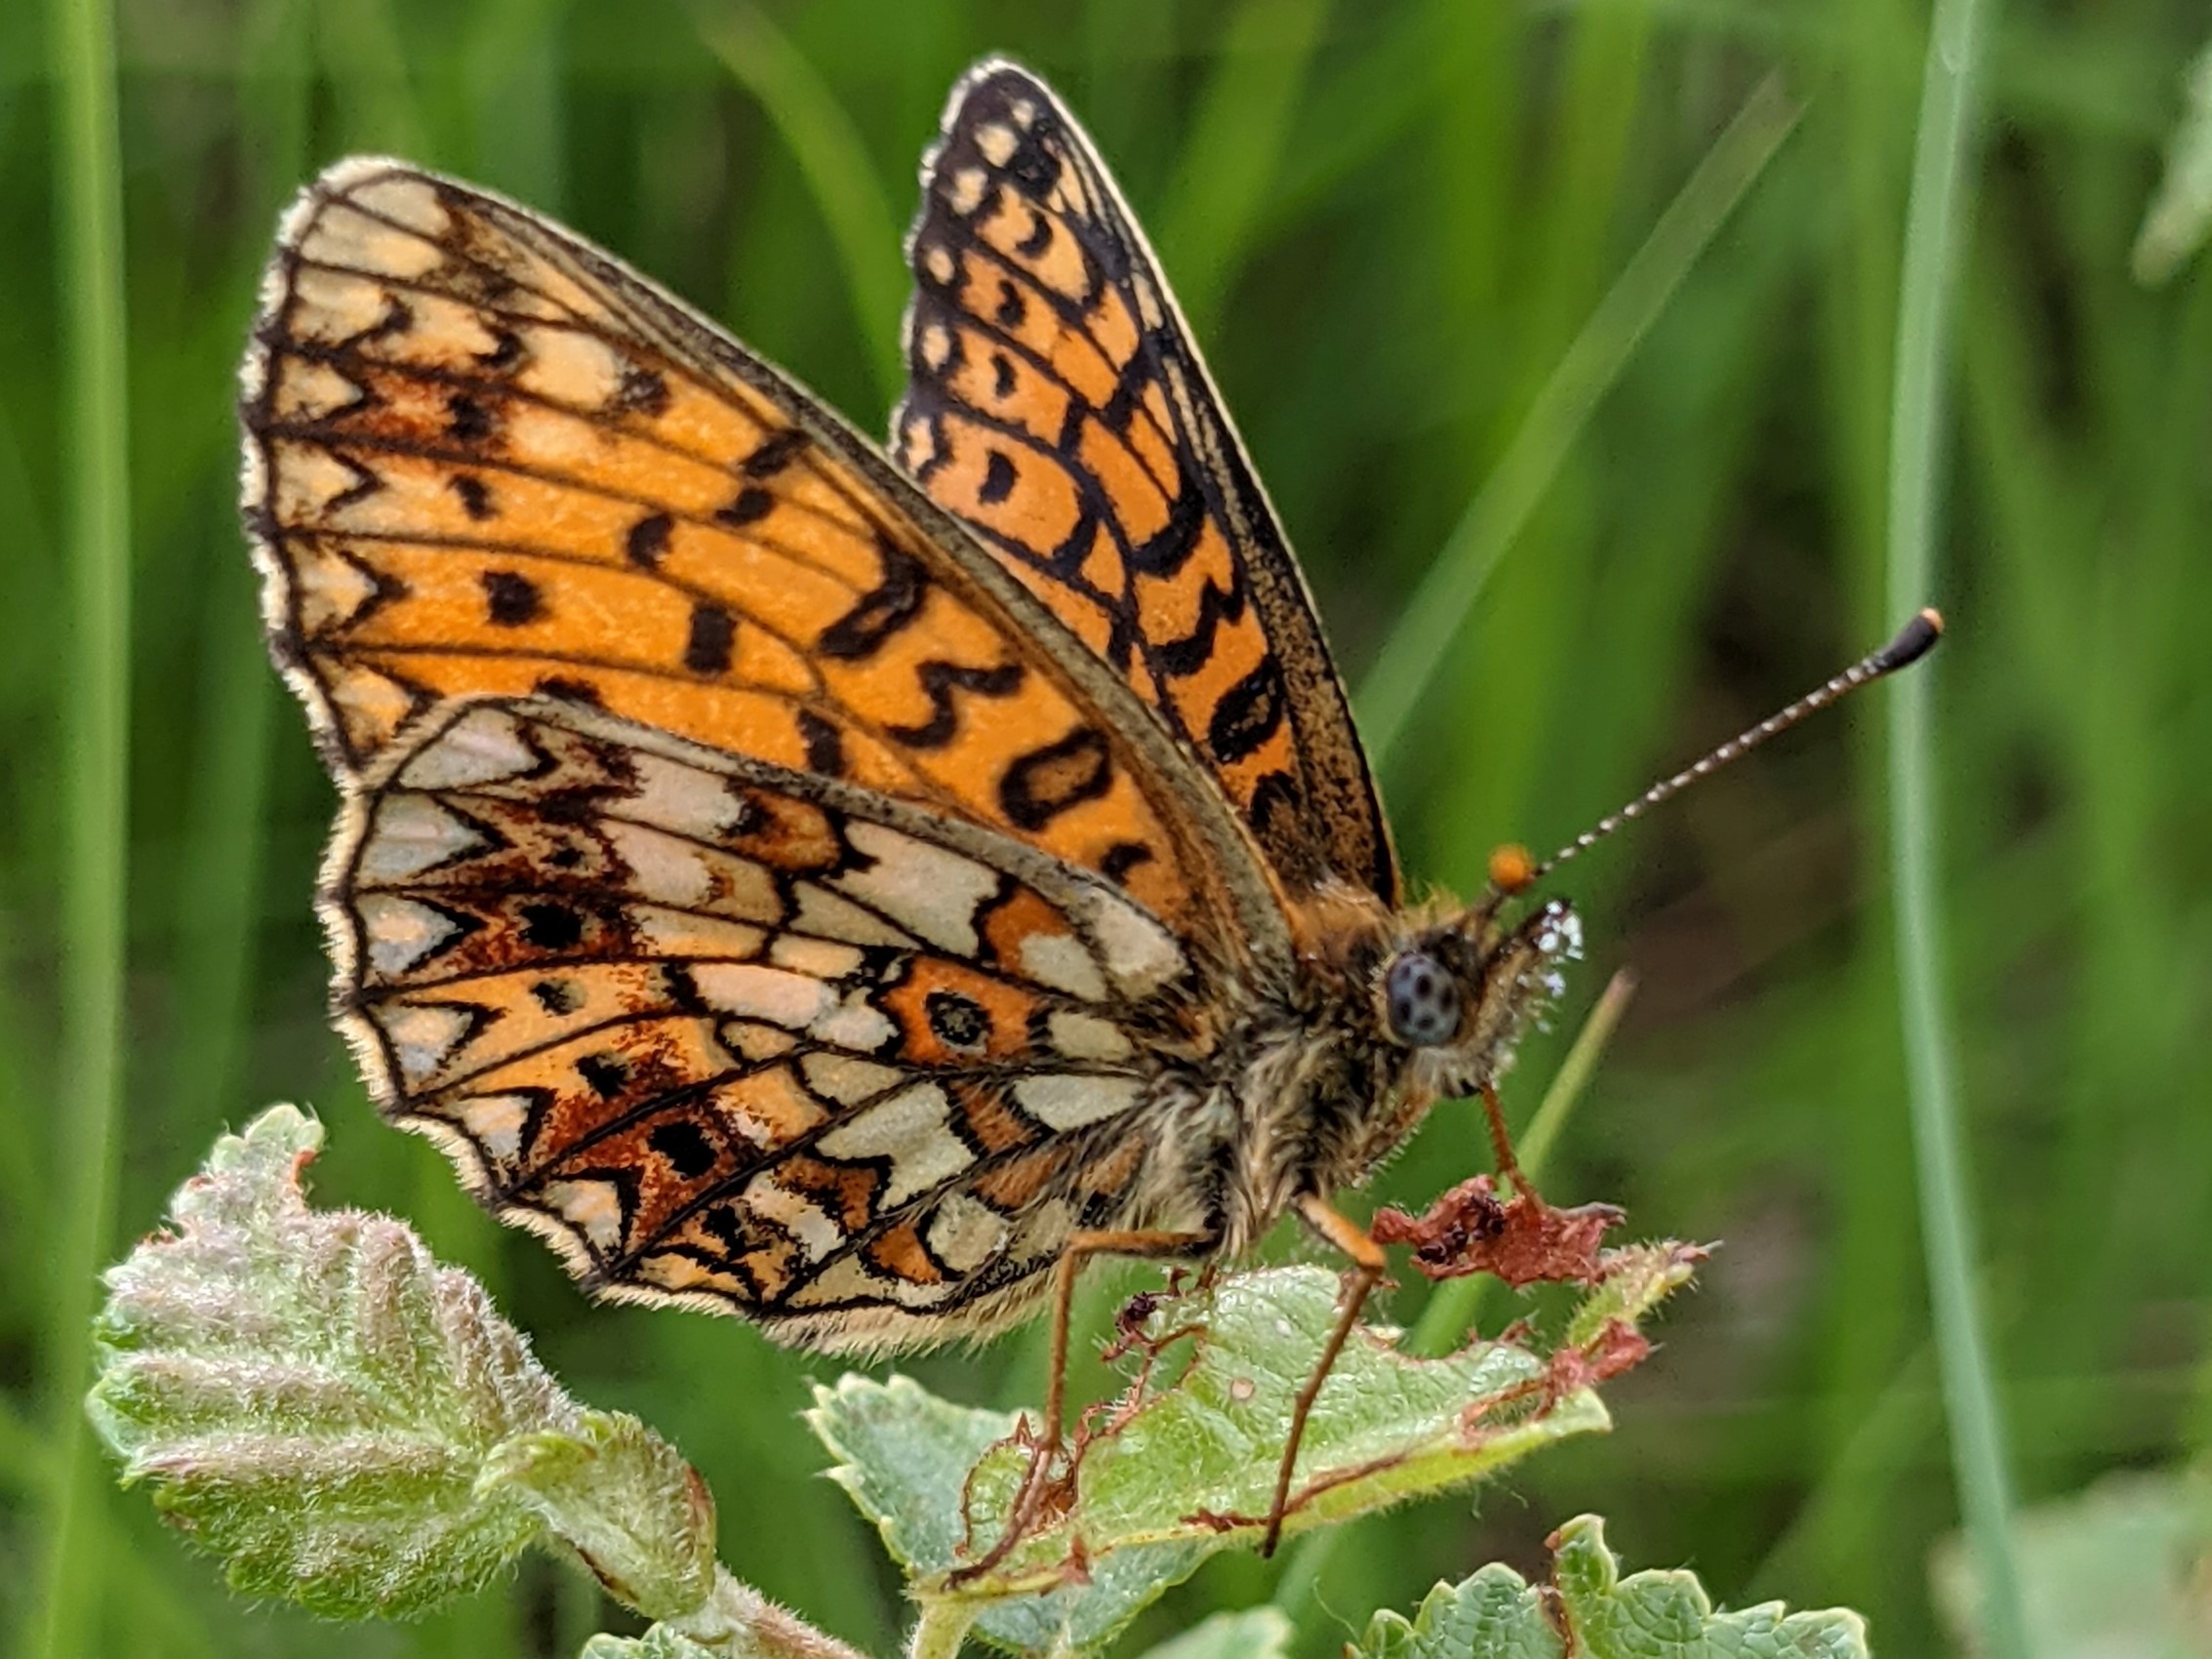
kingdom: Animalia
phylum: Arthropoda
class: Insecta
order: Lepidoptera
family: Nymphalidae
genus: Boloria
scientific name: Boloria selene
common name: Brunlig perlemorsommerfugl
